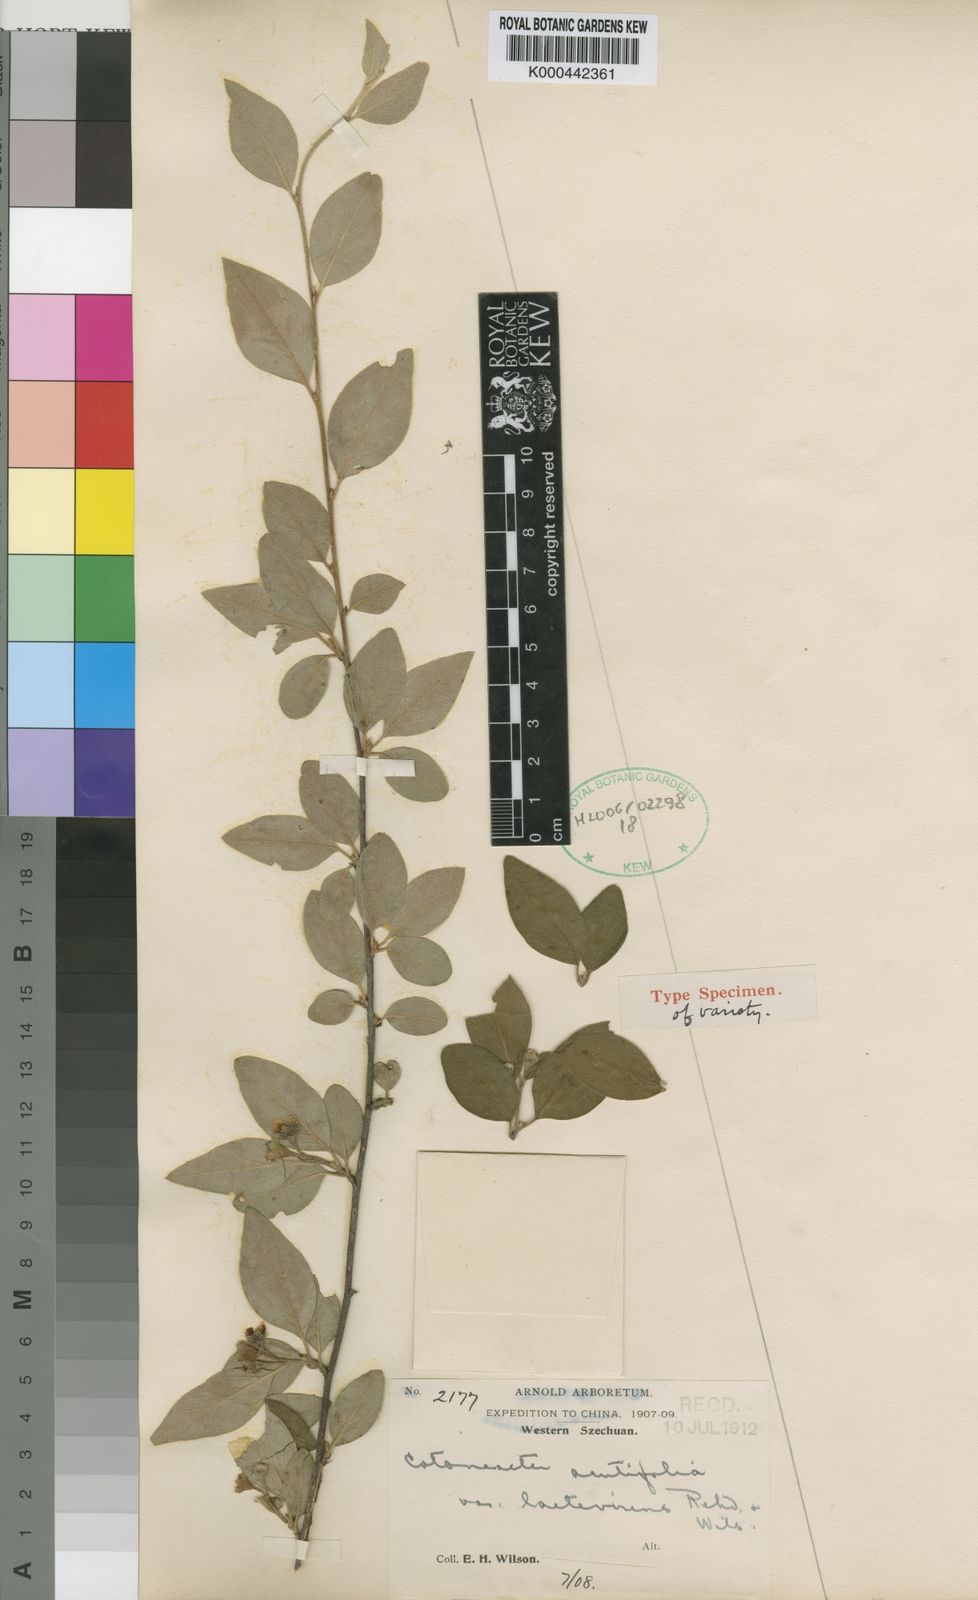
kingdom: Plantae
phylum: Tracheophyta
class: Magnoliopsida
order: Rosales
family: Rosaceae
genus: Cotoneaster
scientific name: Cotoneaster acutifolius
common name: Peking cotoneaster
